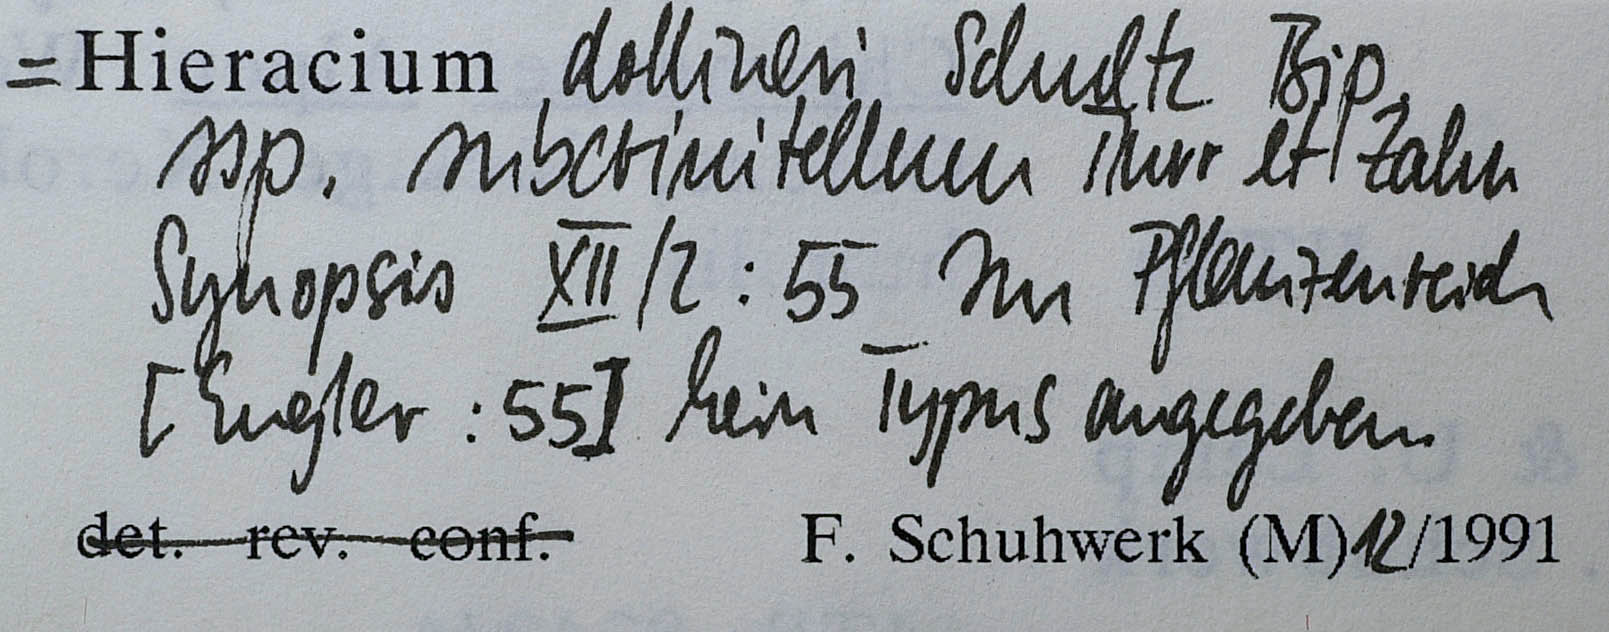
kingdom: Plantae
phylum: Tracheophyta
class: Magnoliopsida
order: Asterales
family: Asteraceae
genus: Hieracium
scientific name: Hieracium dollineri
